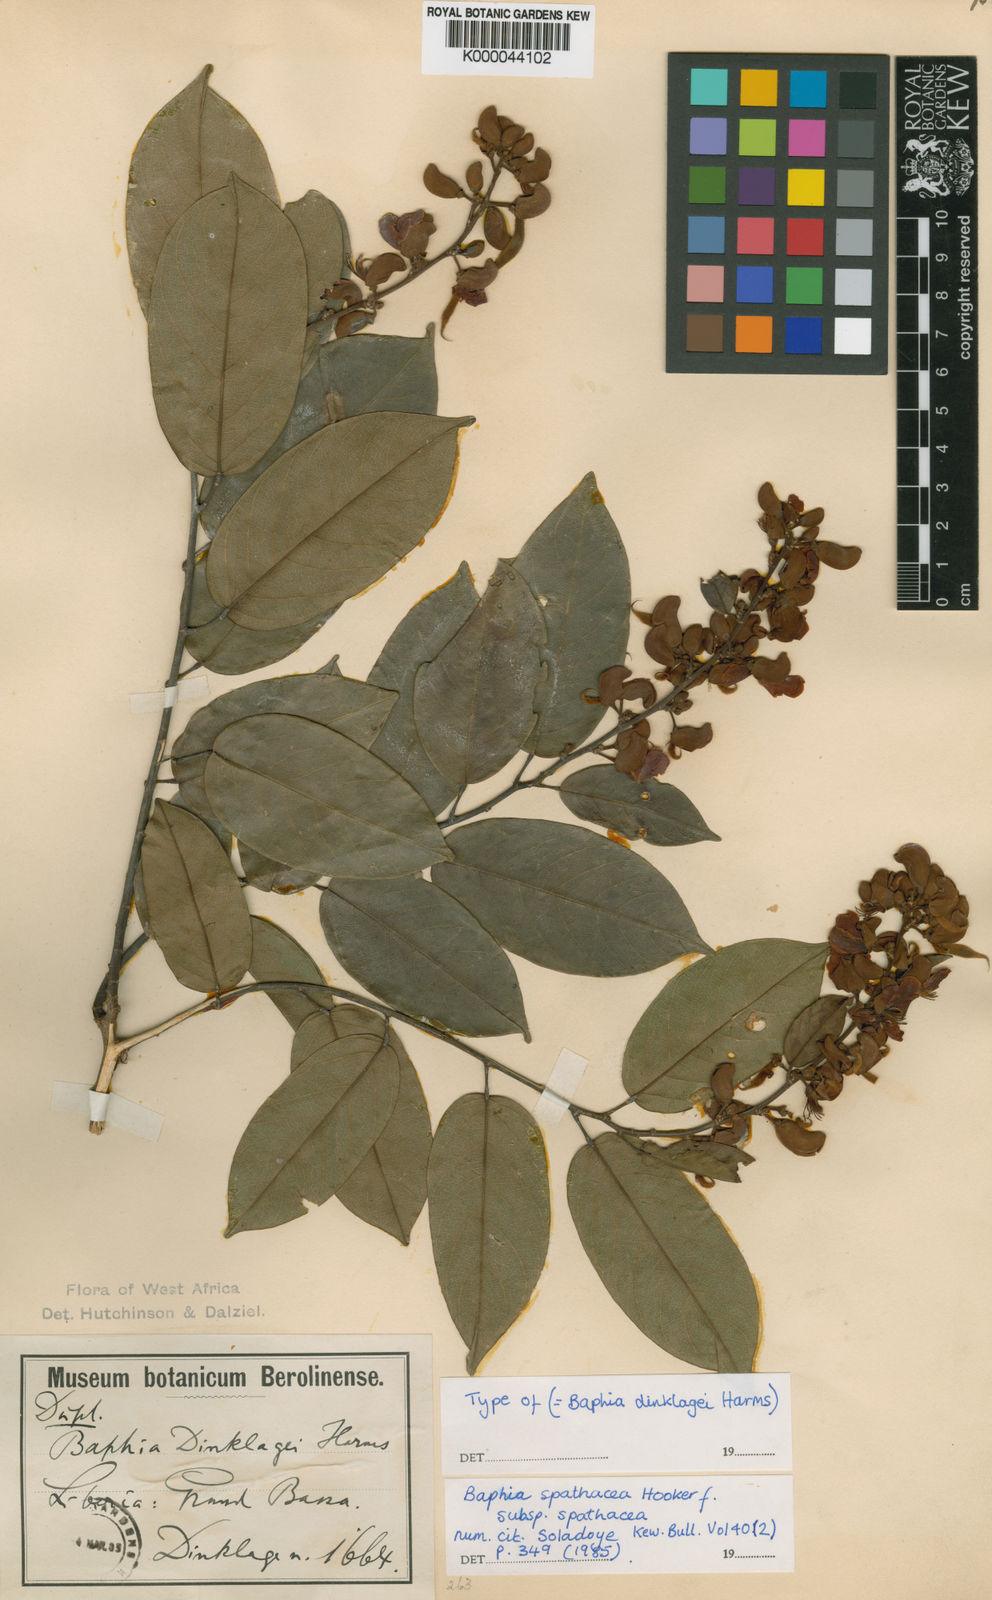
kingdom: Plantae
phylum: Tracheophyta
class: Magnoliopsida
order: Fabales
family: Fabaceae
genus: Baphia
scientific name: Baphia spathacea
